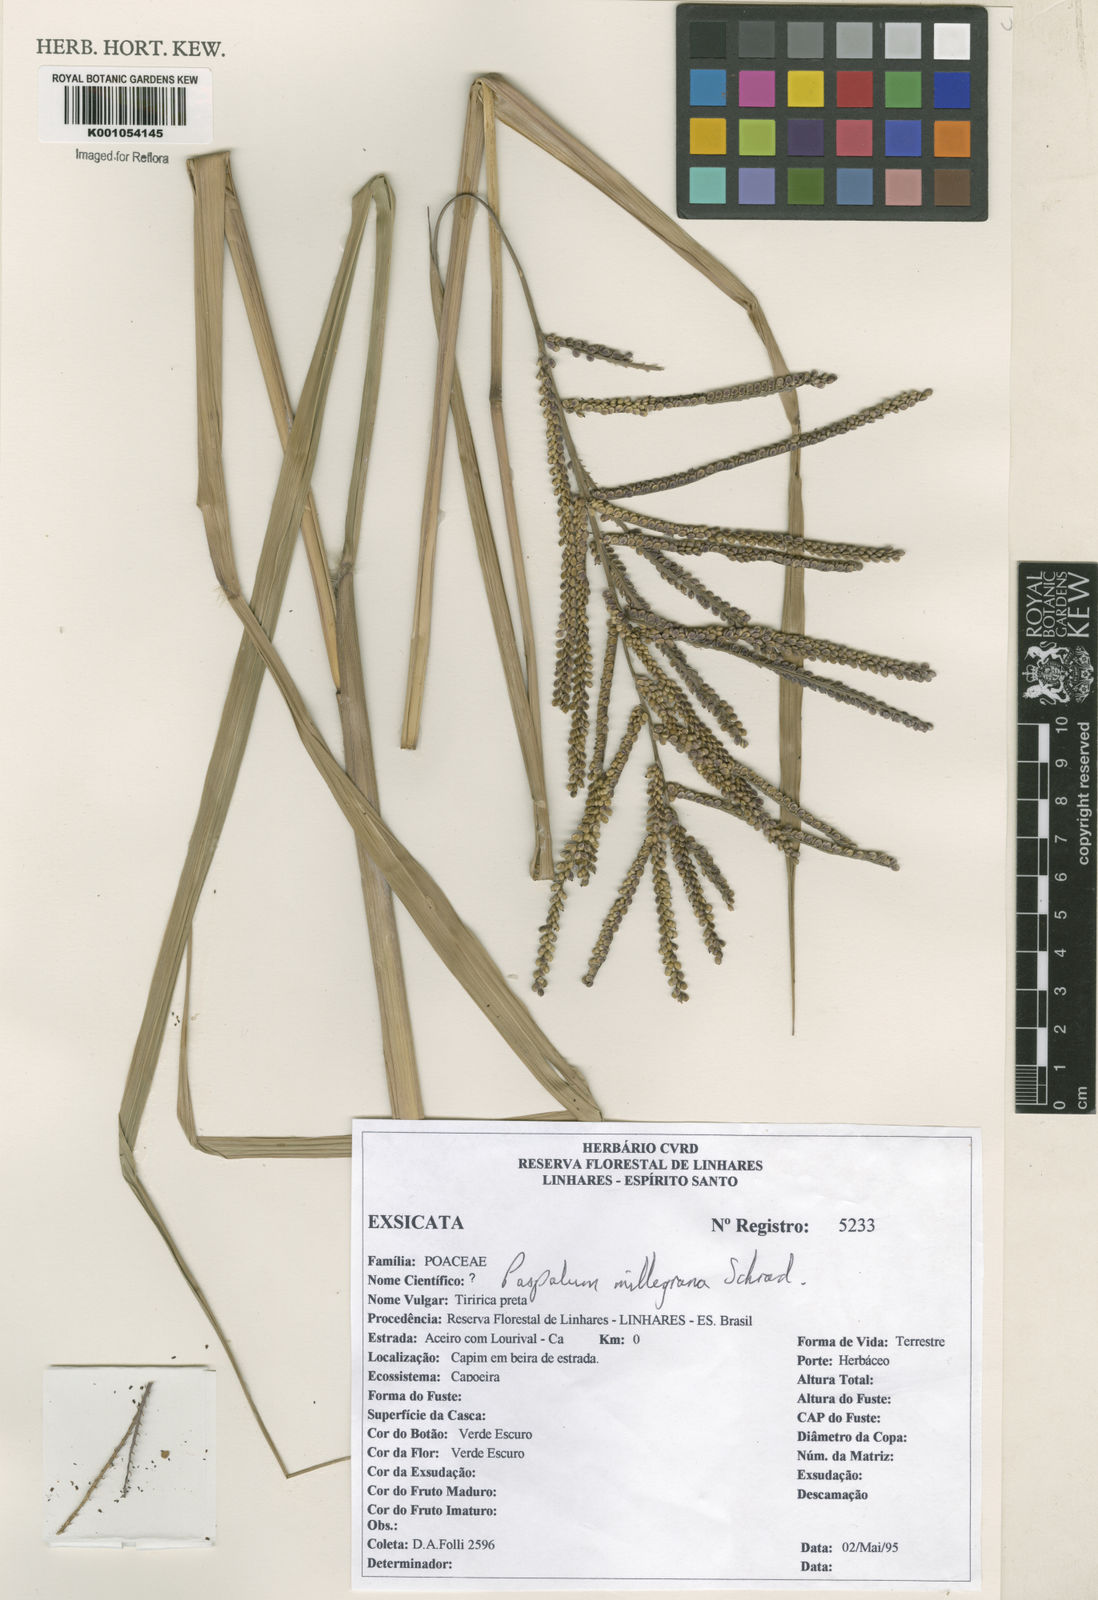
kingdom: Plantae
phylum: Tracheophyta
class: Liliopsida
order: Poales
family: Poaceae
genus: Paspalum
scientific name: Paspalum
